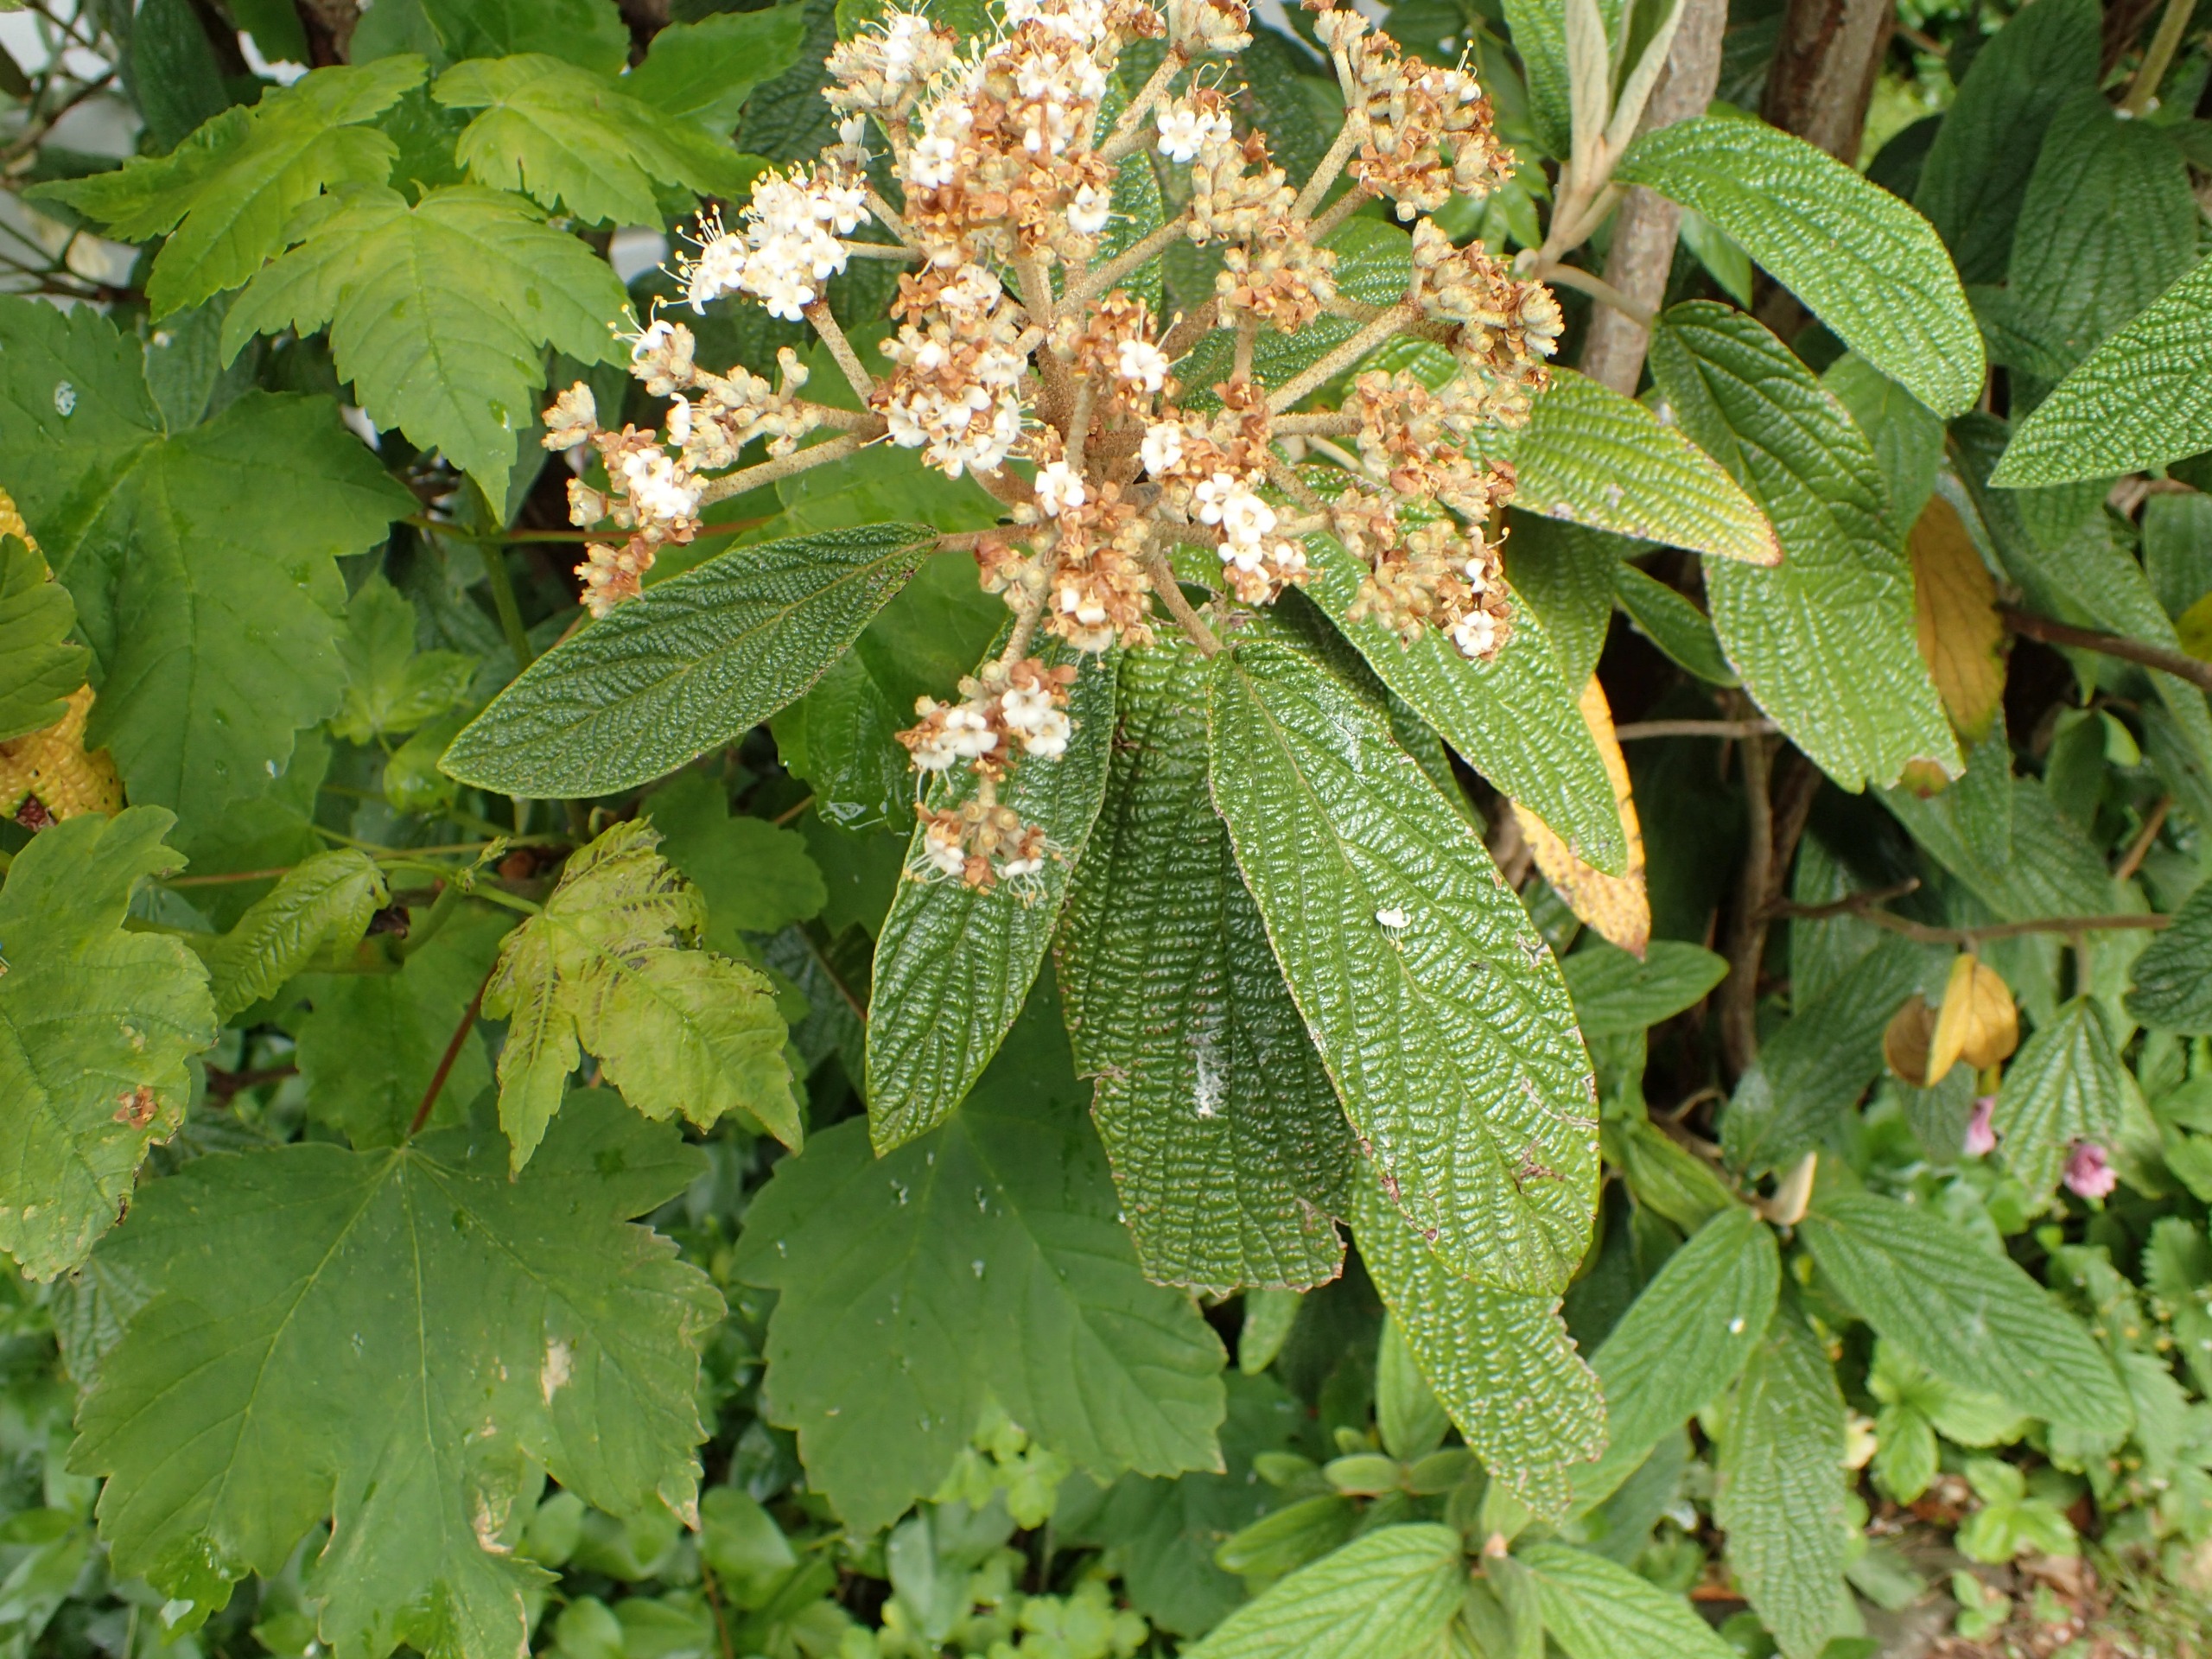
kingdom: Plantae
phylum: Tracheophyta
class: Magnoliopsida
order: Dipsacales
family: Viburnaceae
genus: Viburnum
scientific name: Viburnum rhytidophyllum
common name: Rynkeblad
